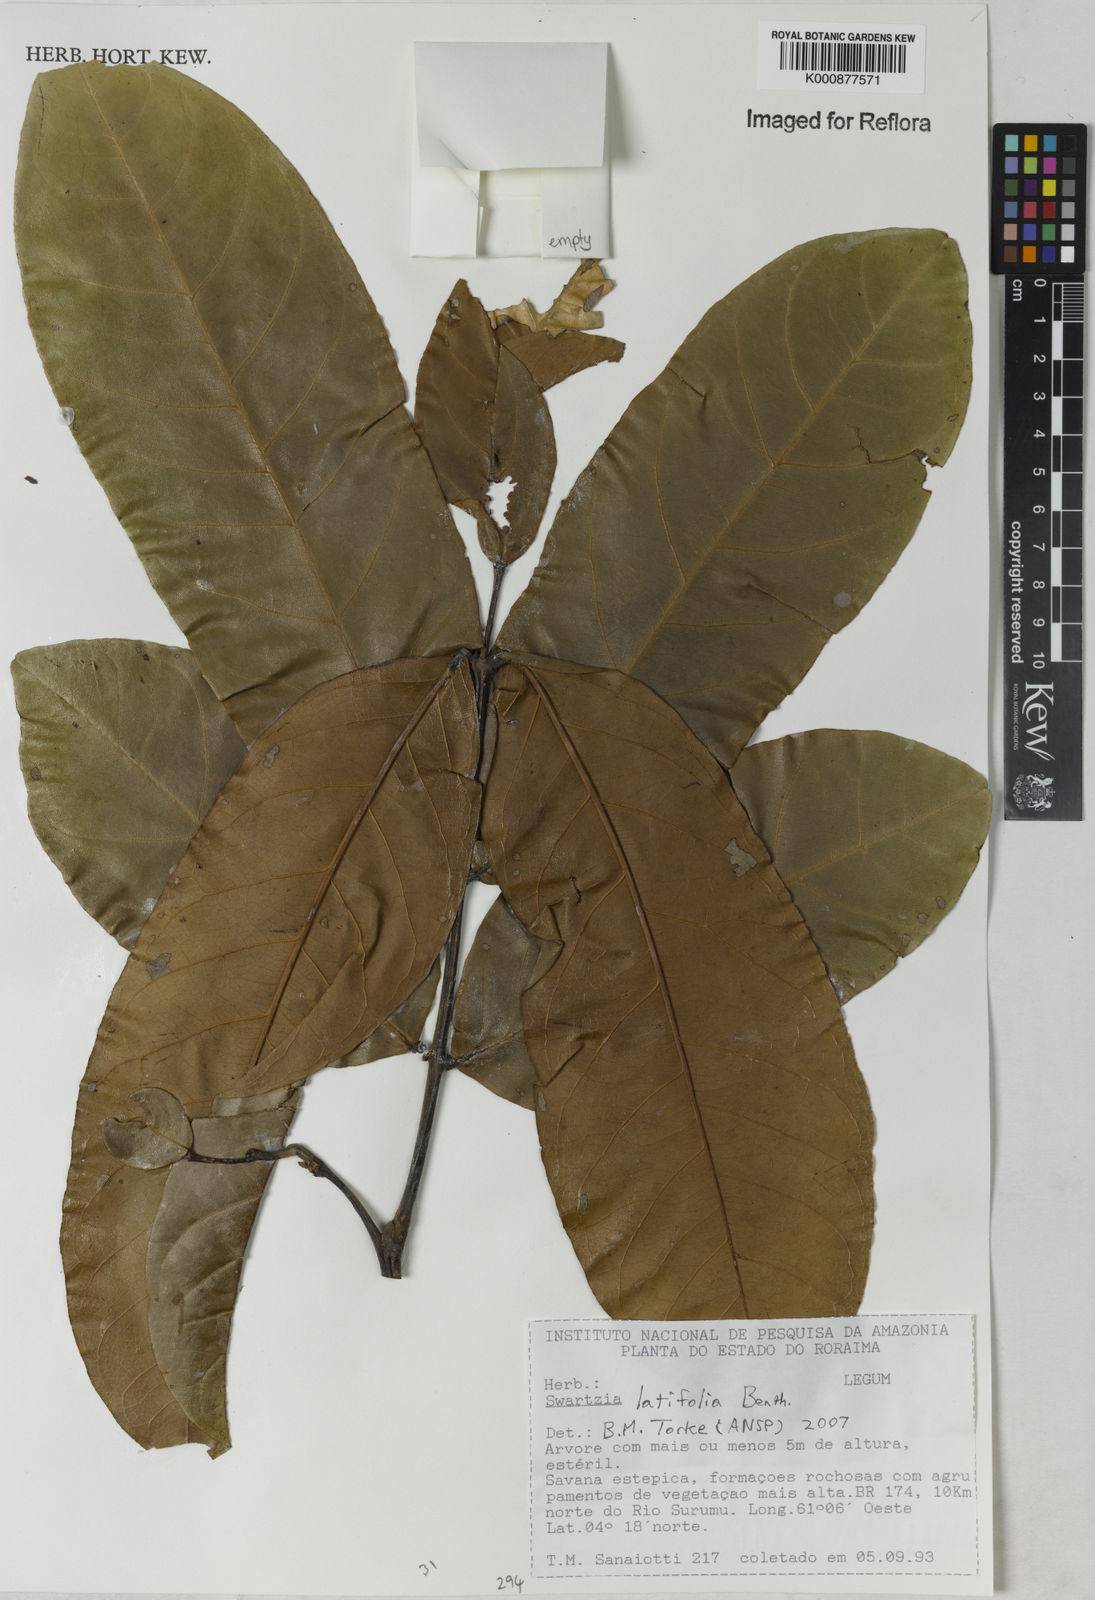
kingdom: Plantae
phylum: Tracheophyta
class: Magnoliopsida
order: Fabales
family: Fabaceae
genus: Swartzia
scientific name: Swartzia latifolia
